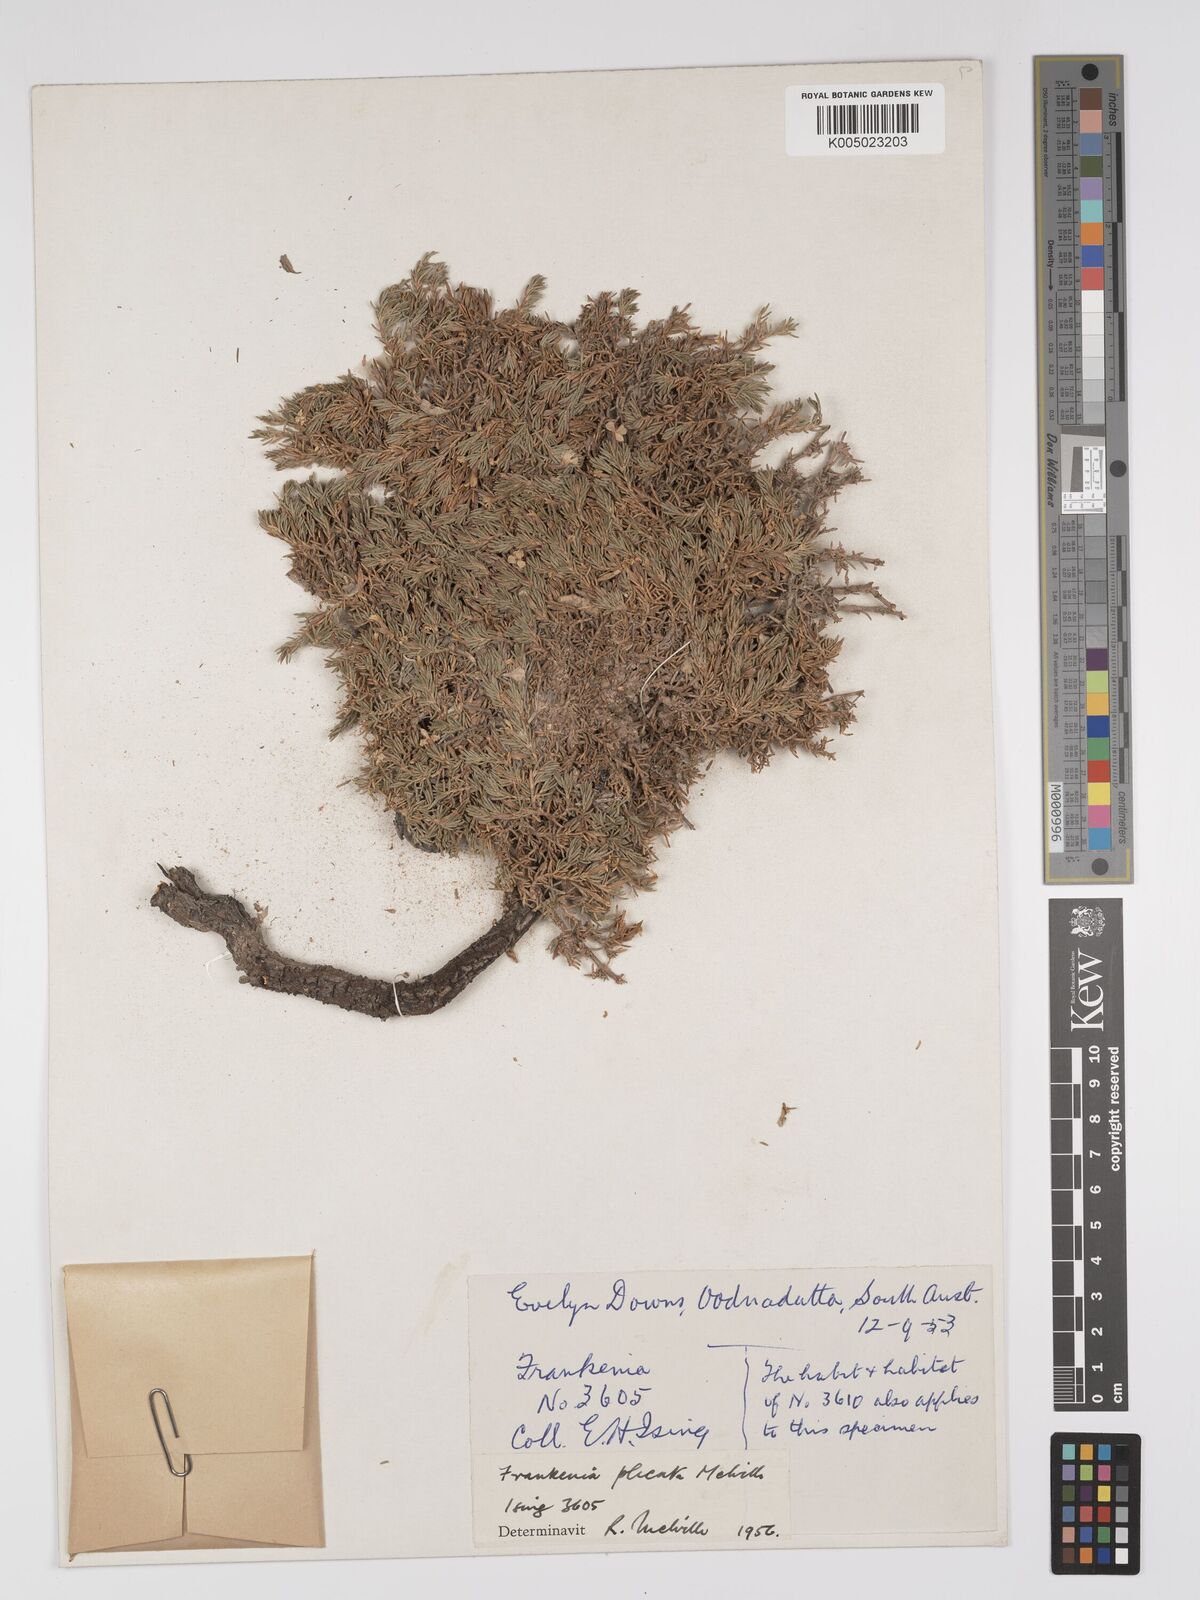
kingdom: Plantae
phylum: Tracheophyta
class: Magnoliopsida
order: Caryophyllales
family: Frankeniaceae
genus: Frankenia
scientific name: Frankenia plicata
